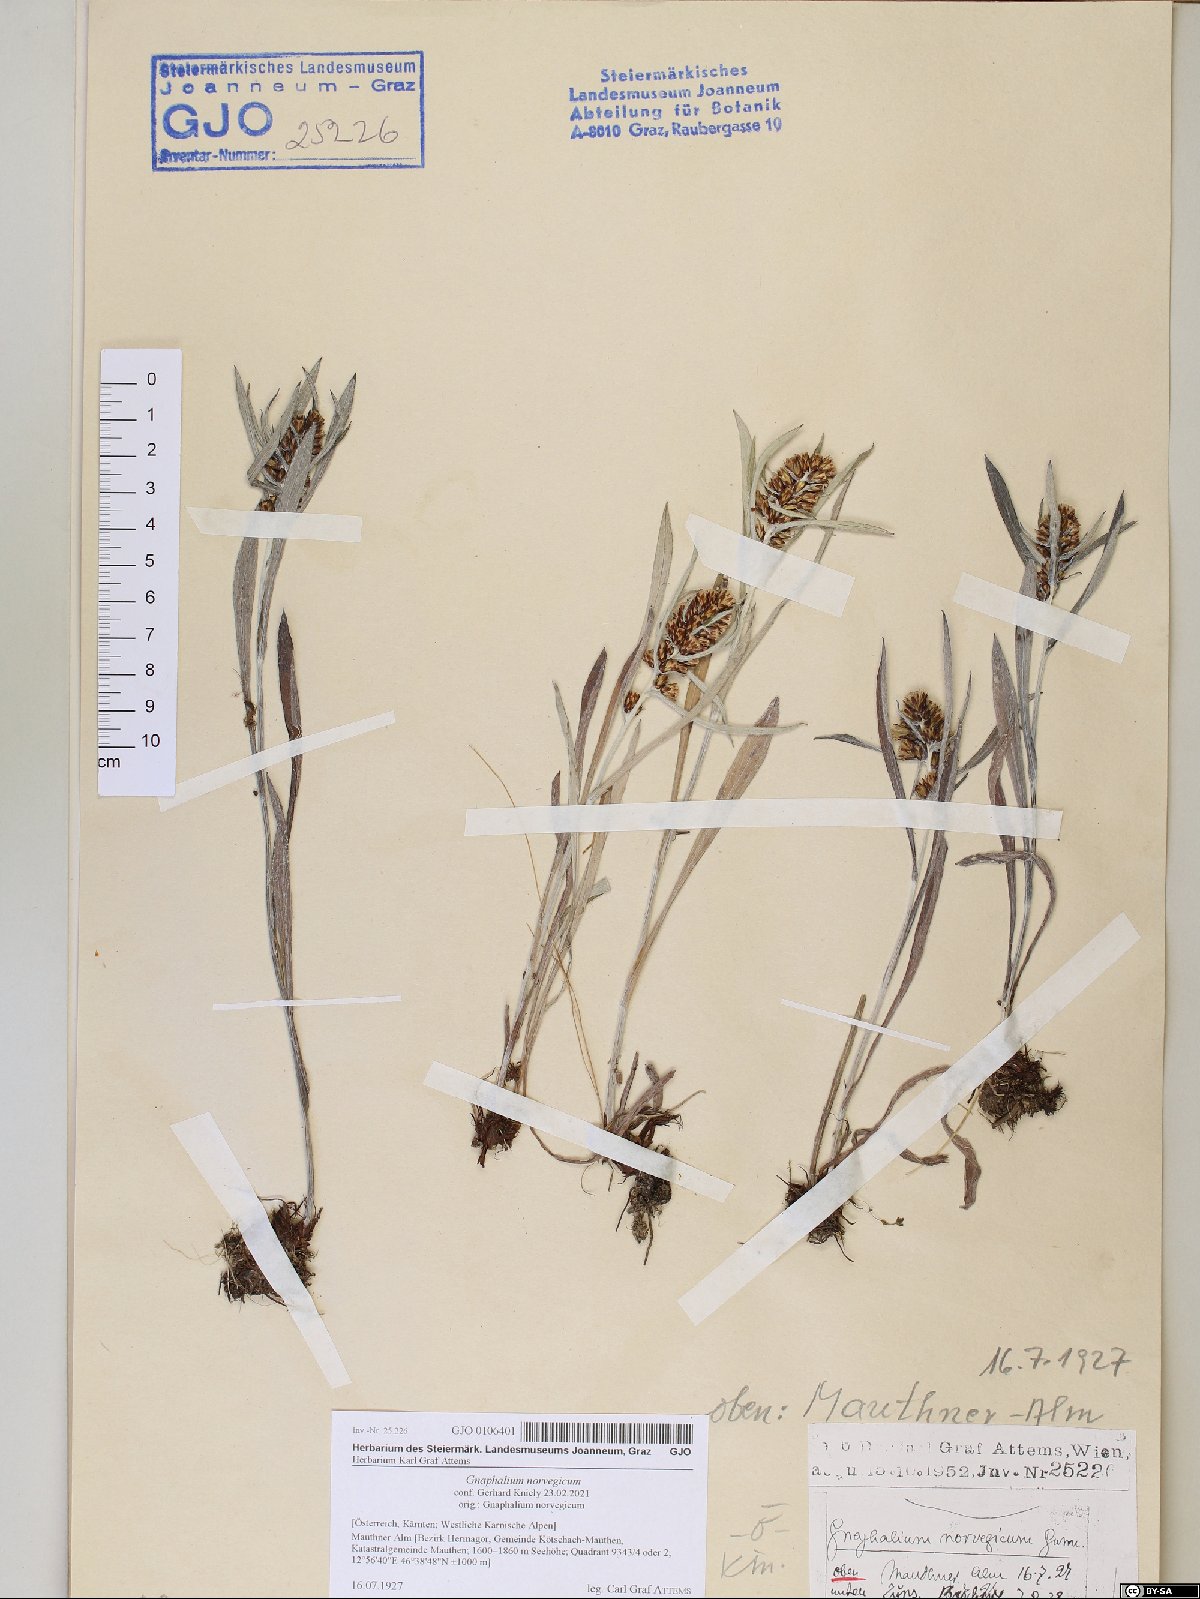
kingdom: Plantae
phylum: Tracheophyta
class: Magnoliopsida
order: Asterales
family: Asteraceae
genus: Omalotheca
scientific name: Omalotheca norvegica
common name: Norwegian arctic-cudweed
